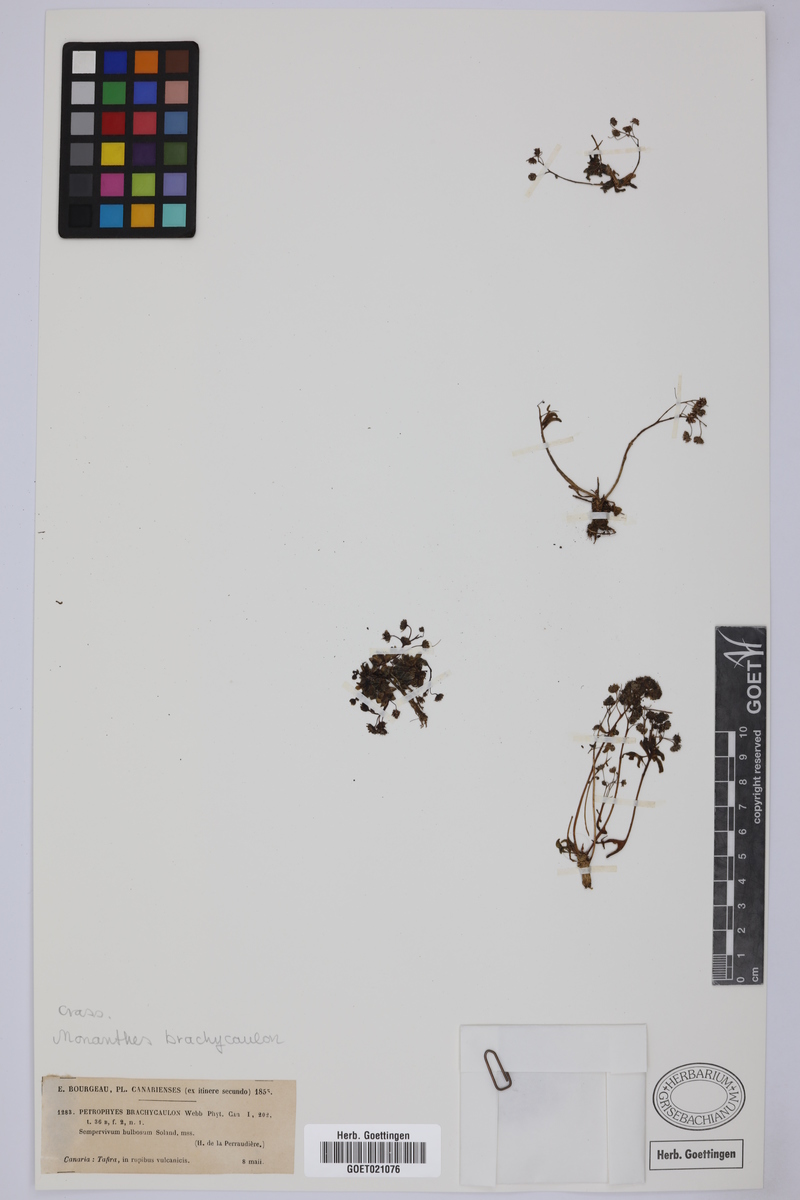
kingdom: Plantae
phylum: Tracheophyta
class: Magnoliopsida
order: Saxifragales
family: Crassulaceae
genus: Monanthes
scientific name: Monanthes brachycaulos
